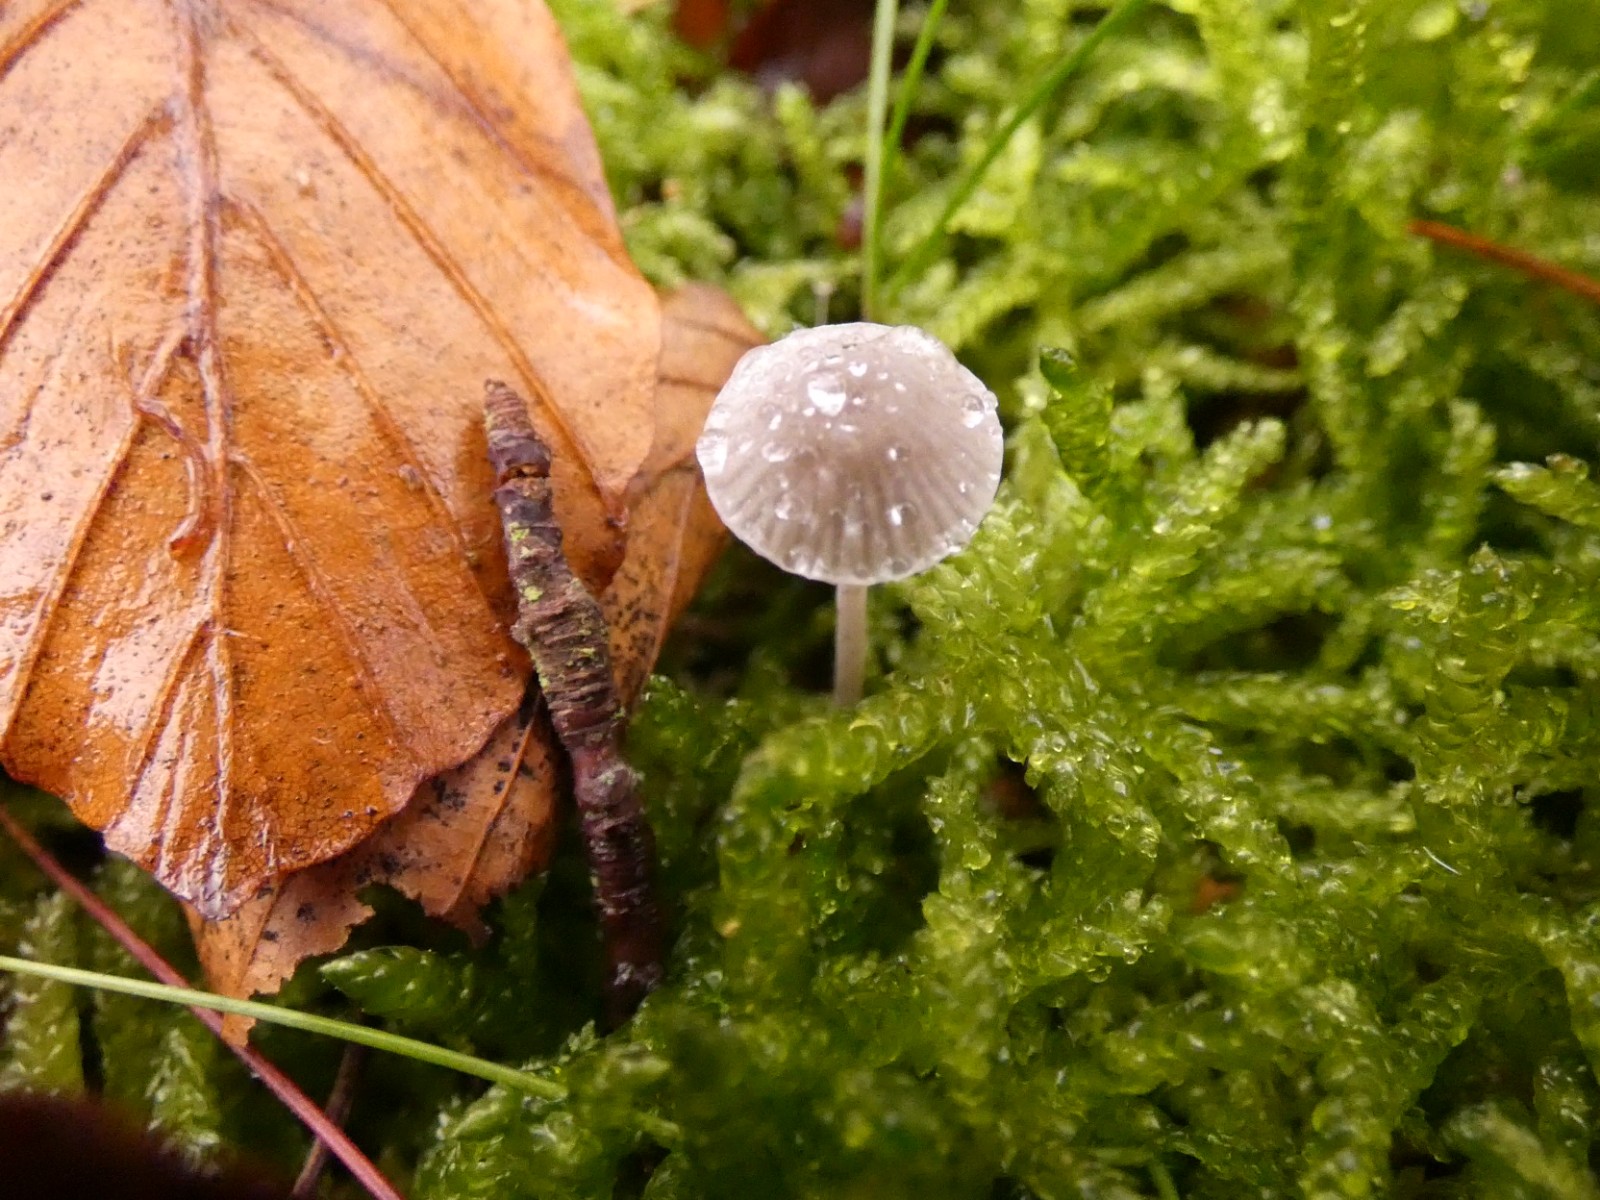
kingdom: Fungi
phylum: Basidiomycota
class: Agaricomycetes
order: Agaricales
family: Mycenaceae
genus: Mycena
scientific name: Mycena cinerella
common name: mel-huesvamp
